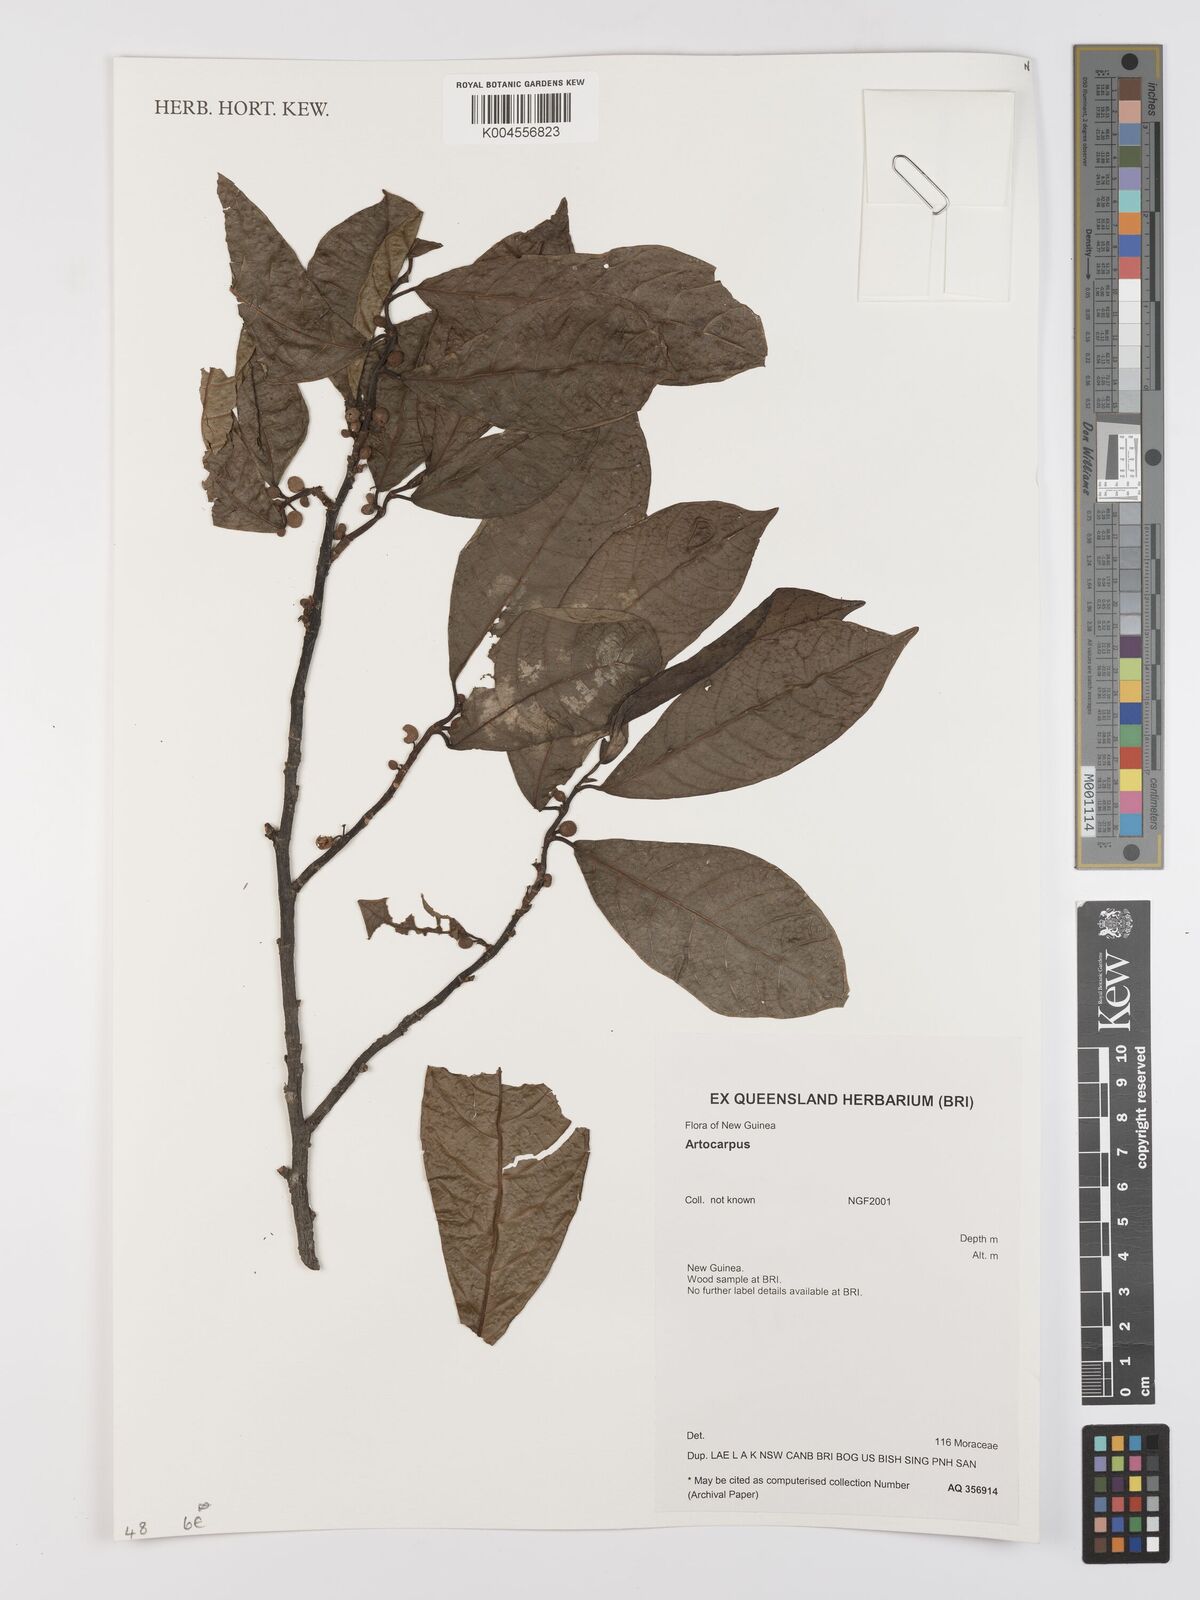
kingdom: Plantae
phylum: Tracheophyta
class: Magnoliopsida
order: Rosales
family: Moraceae
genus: Artocarpus
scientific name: Artocarpus
